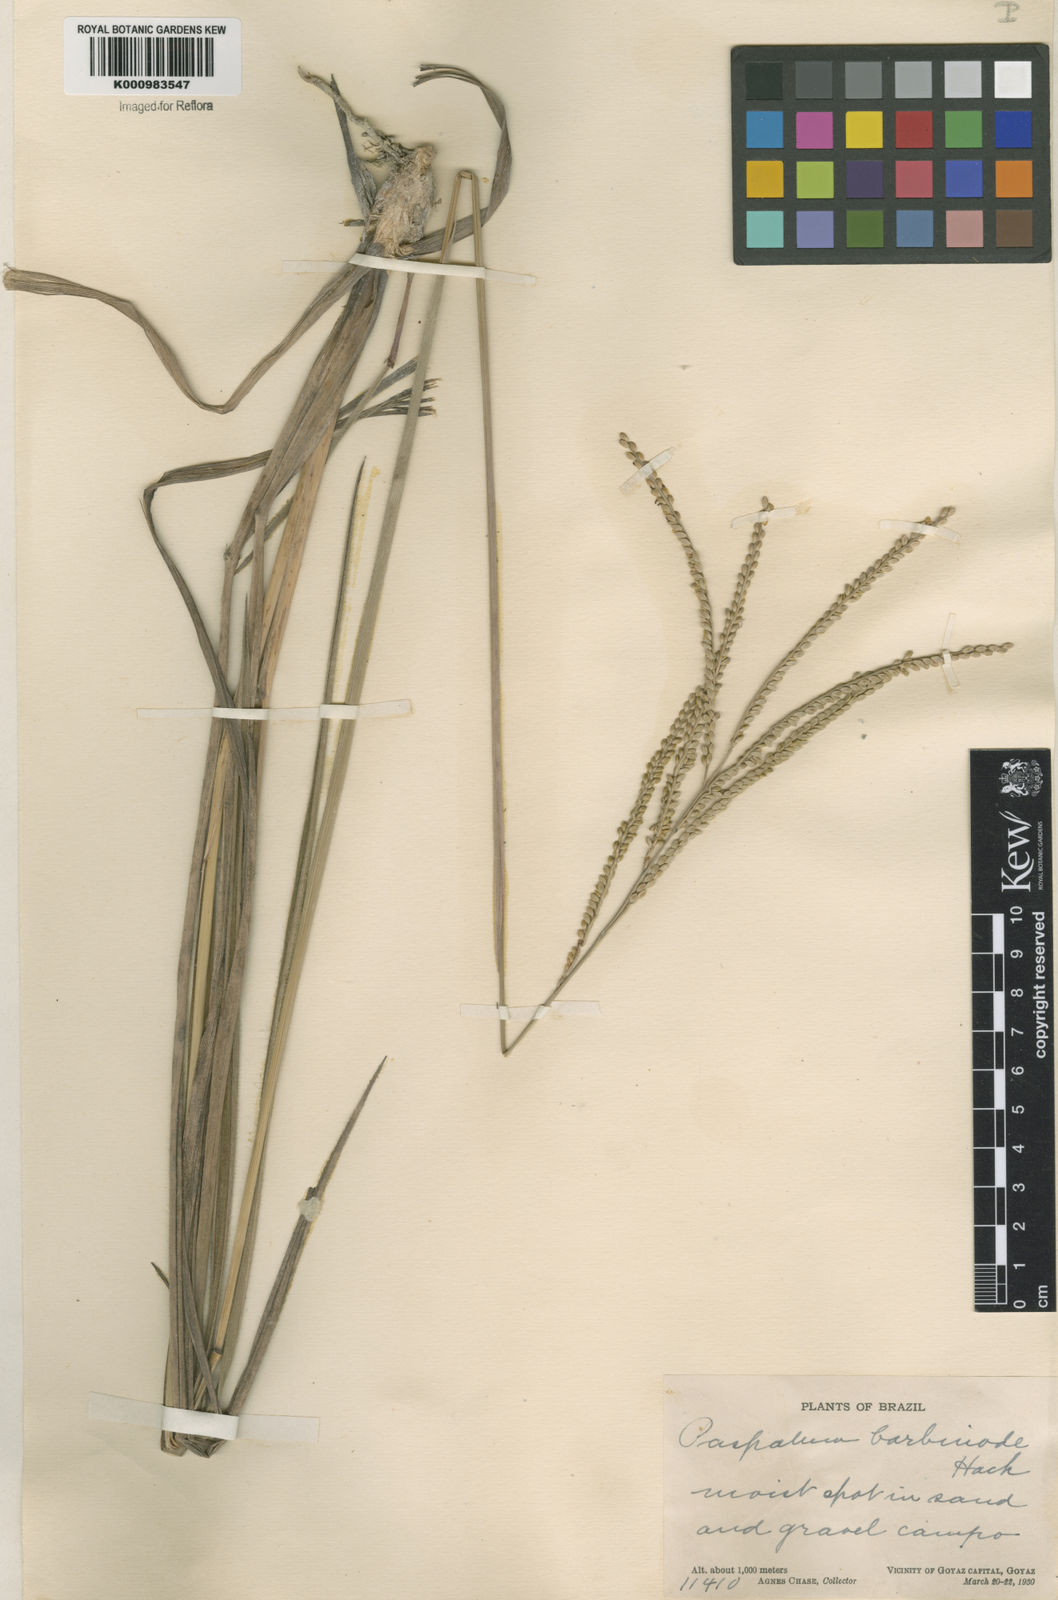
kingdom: Plantae
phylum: Tracheophyta
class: Liliopsida
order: Poales
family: Poaceae
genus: Paspalum
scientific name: Paspalum barbinode
